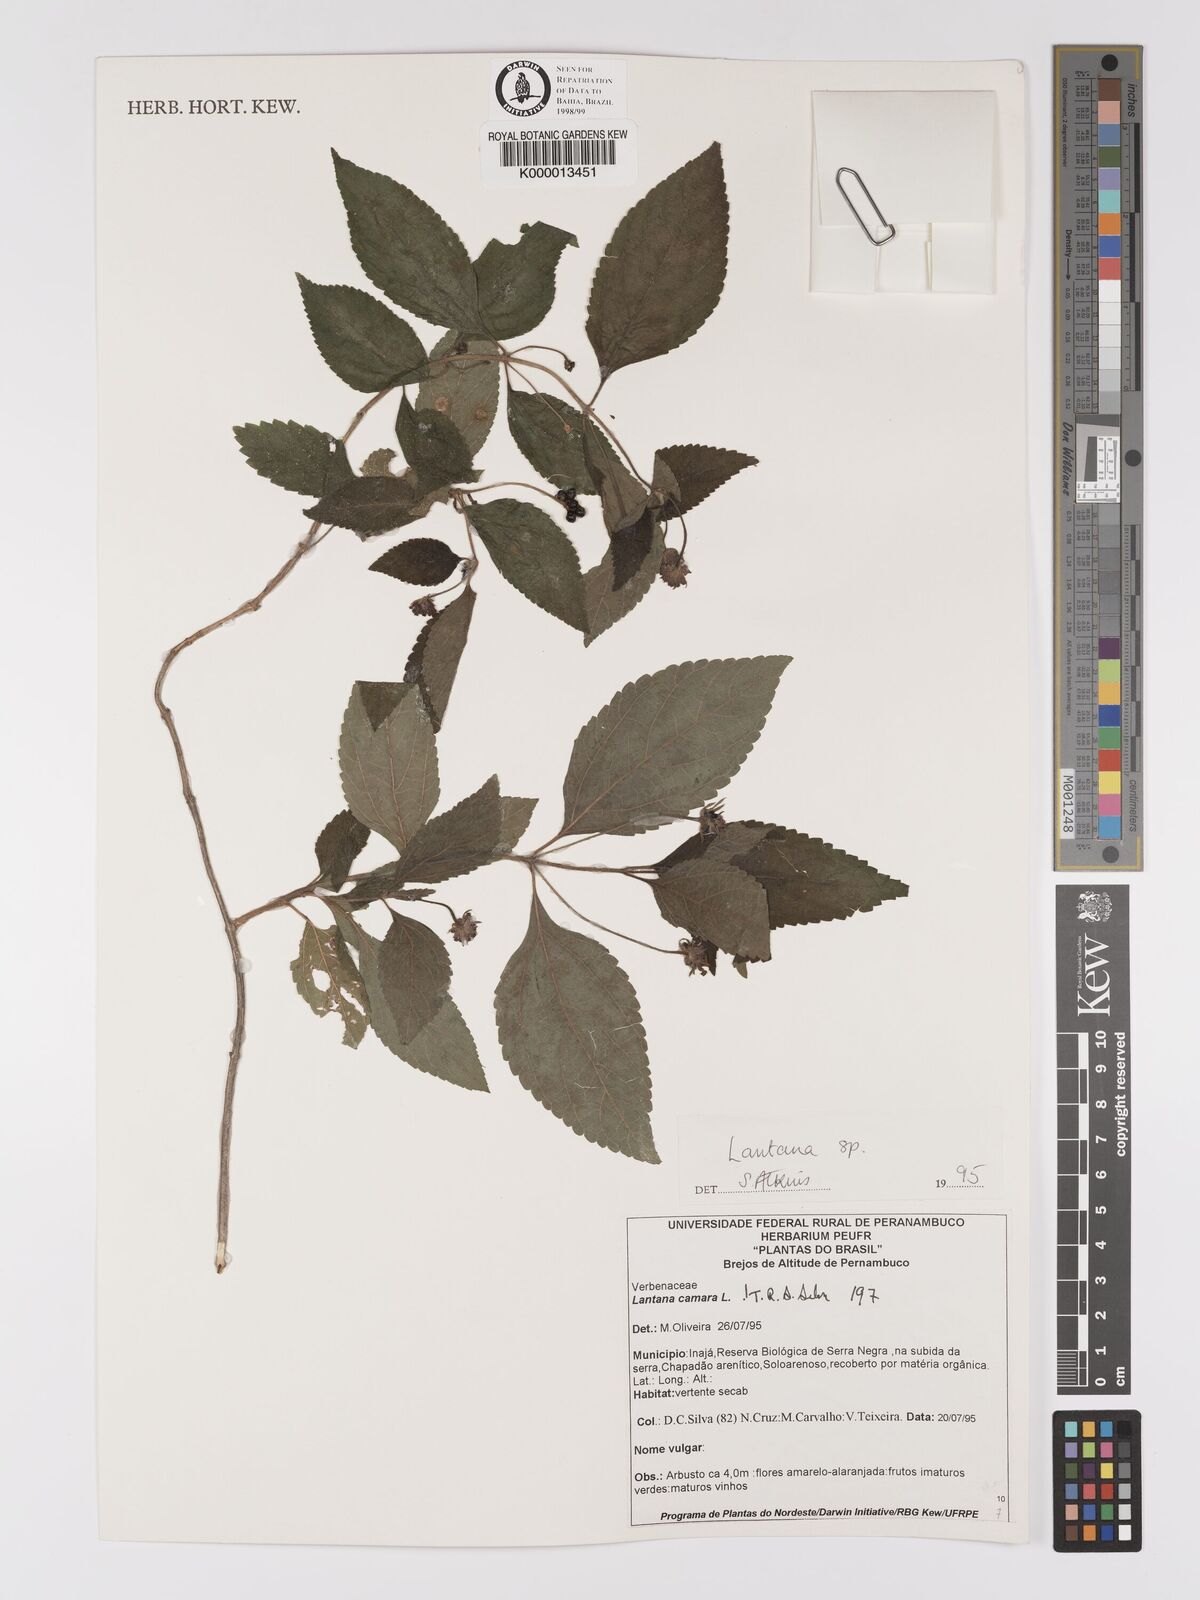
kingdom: Plantae
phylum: Tracheophyta
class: Magnoliopsida
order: Lamiales
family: Verbenaceae
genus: Lantana
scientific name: Lantana camara
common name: Lantana
